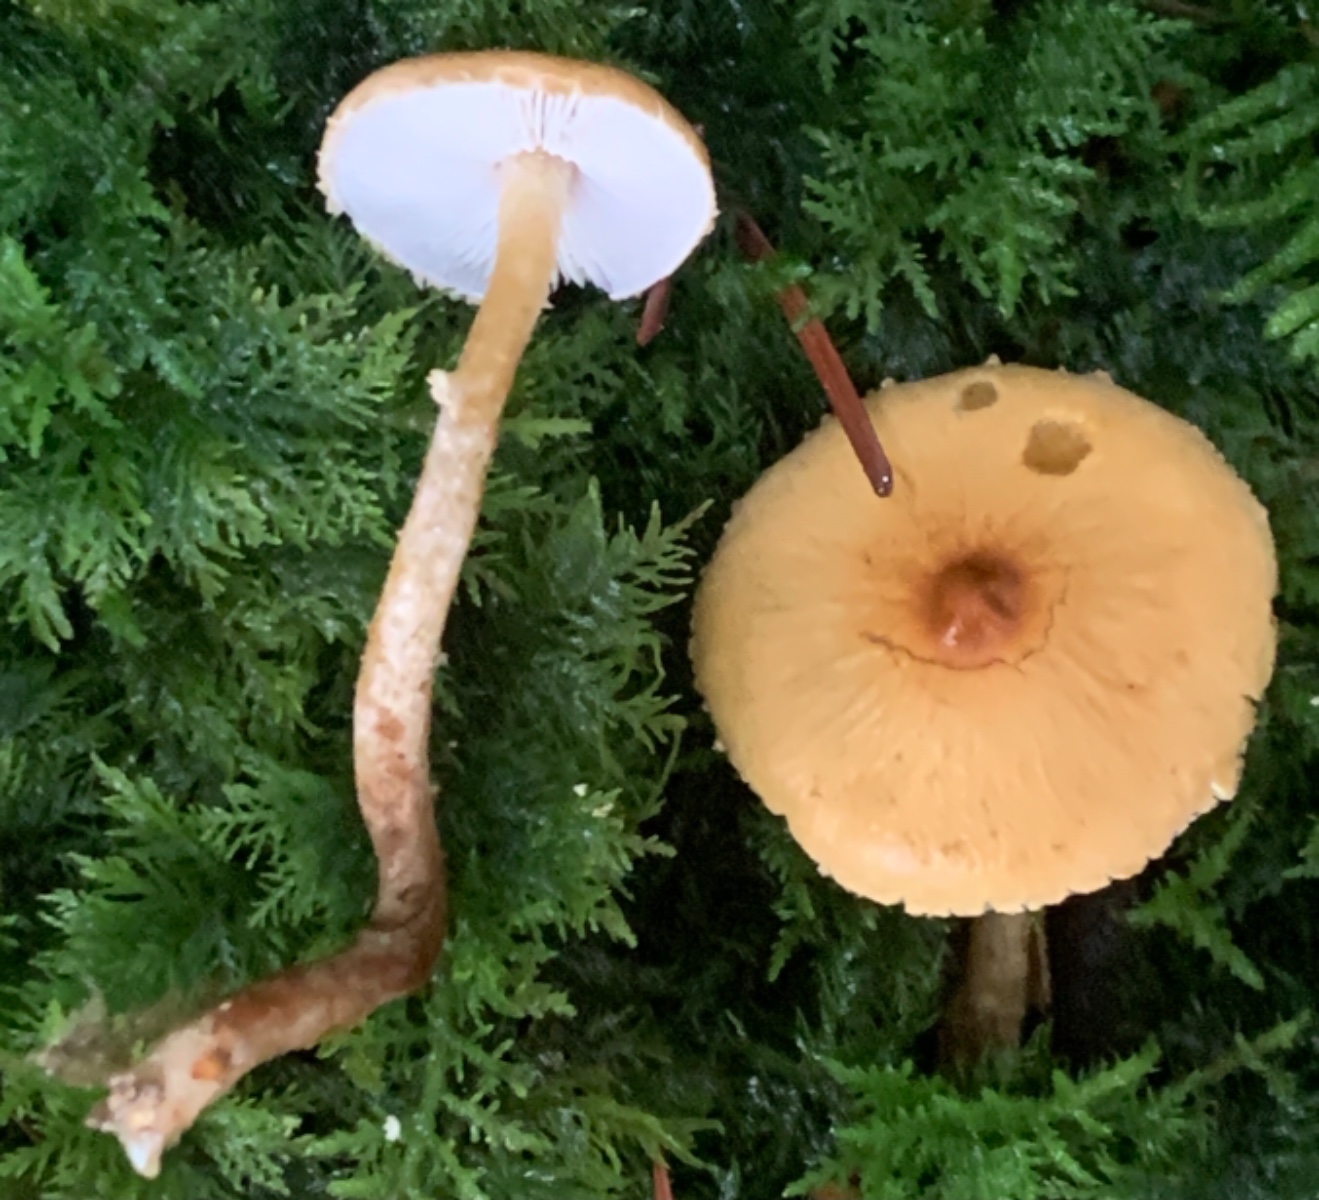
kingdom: Fungi
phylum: Basidiomycota
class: Agaricomycetes
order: Agaricales
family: Tricholomataceae
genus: Cystoderma
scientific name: Cystoderma amianthinum
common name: okkergul grynhat
